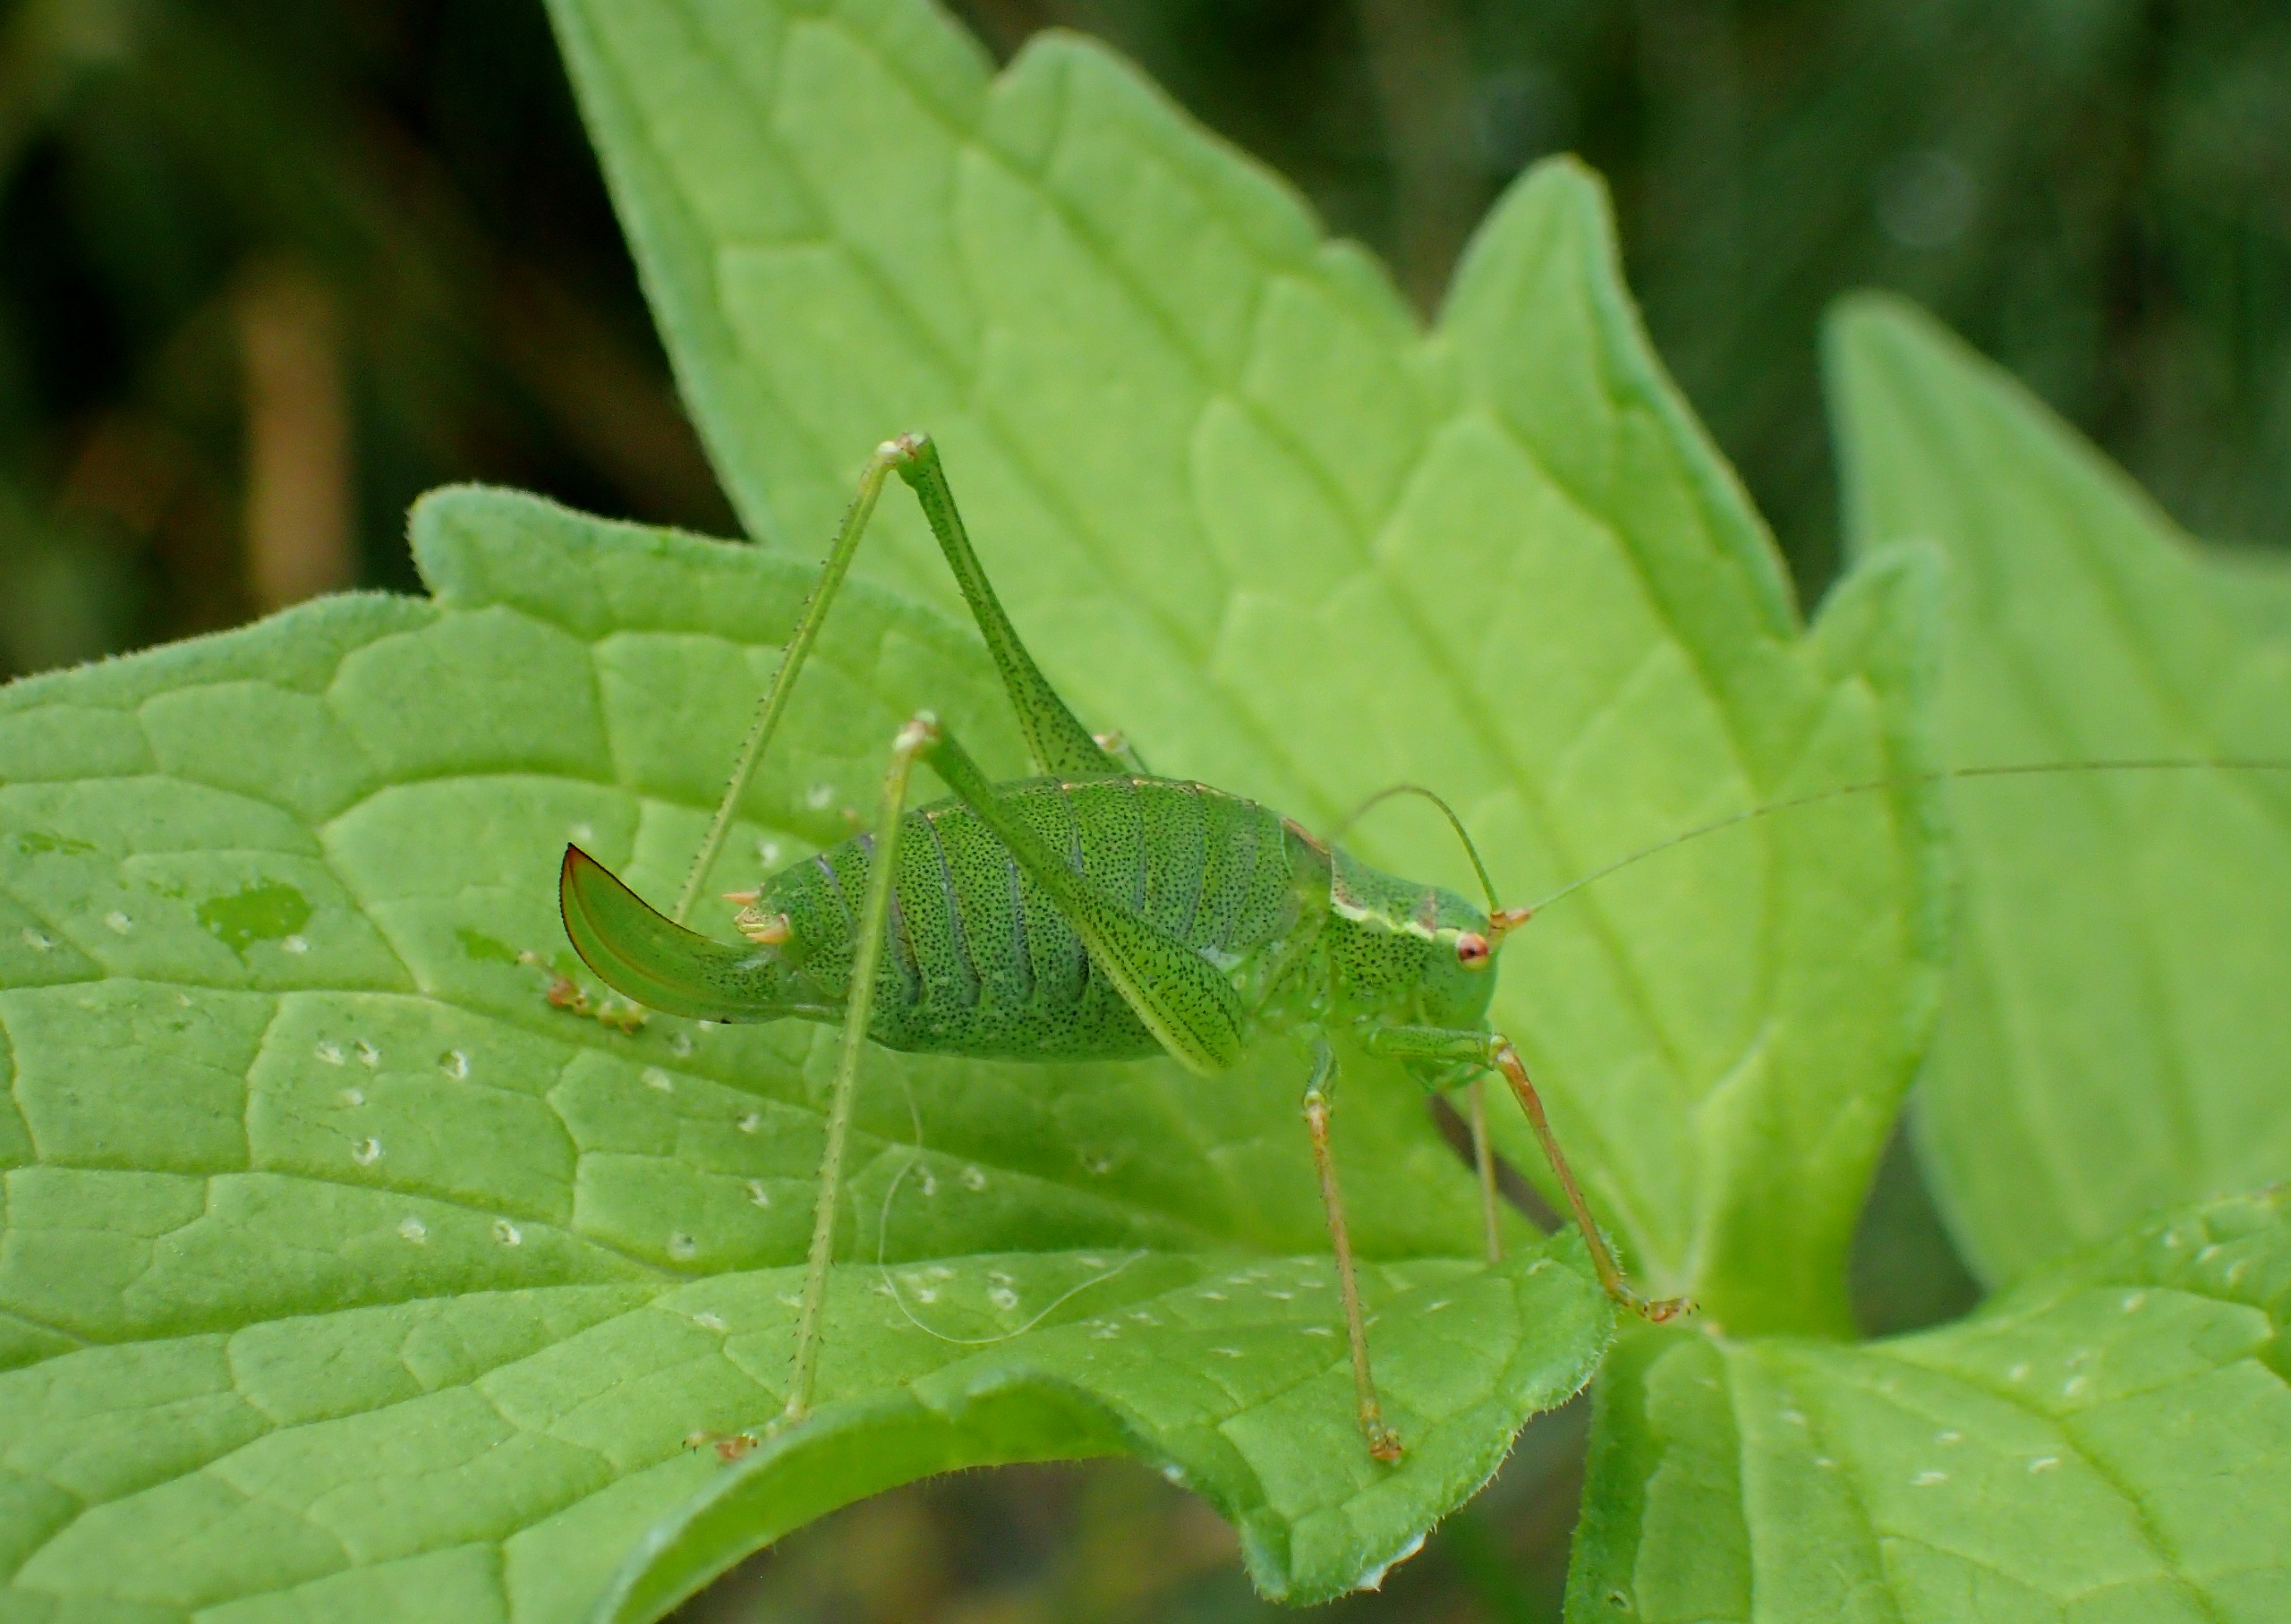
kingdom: Animalia
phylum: Arthropoda
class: Insecta
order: Orthoptera
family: Tettigoniidae
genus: Leptophyes
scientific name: Leptophyes punctatissima
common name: Krumknivgræshoppe
